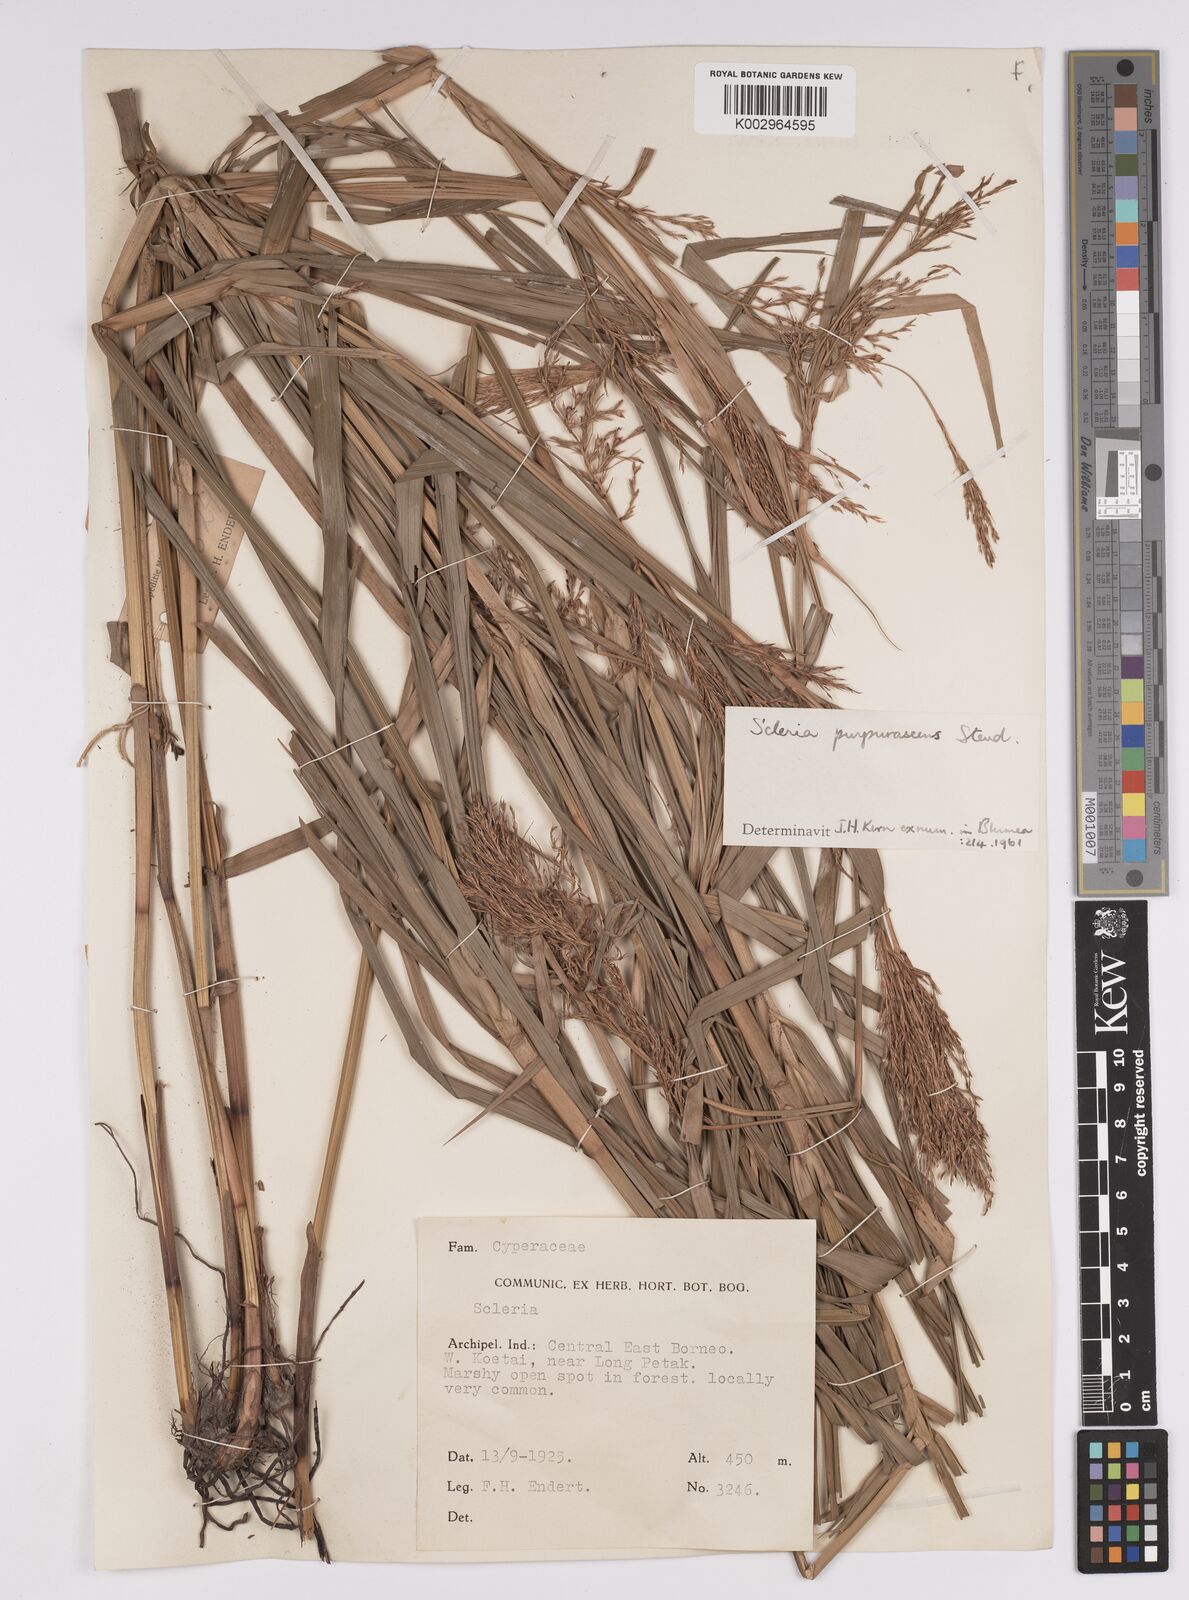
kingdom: Plantae
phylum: Tracheophyta
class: Liliopsida
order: Poales
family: Cyperaceae
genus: Scleria
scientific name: Scleria purpurascens
